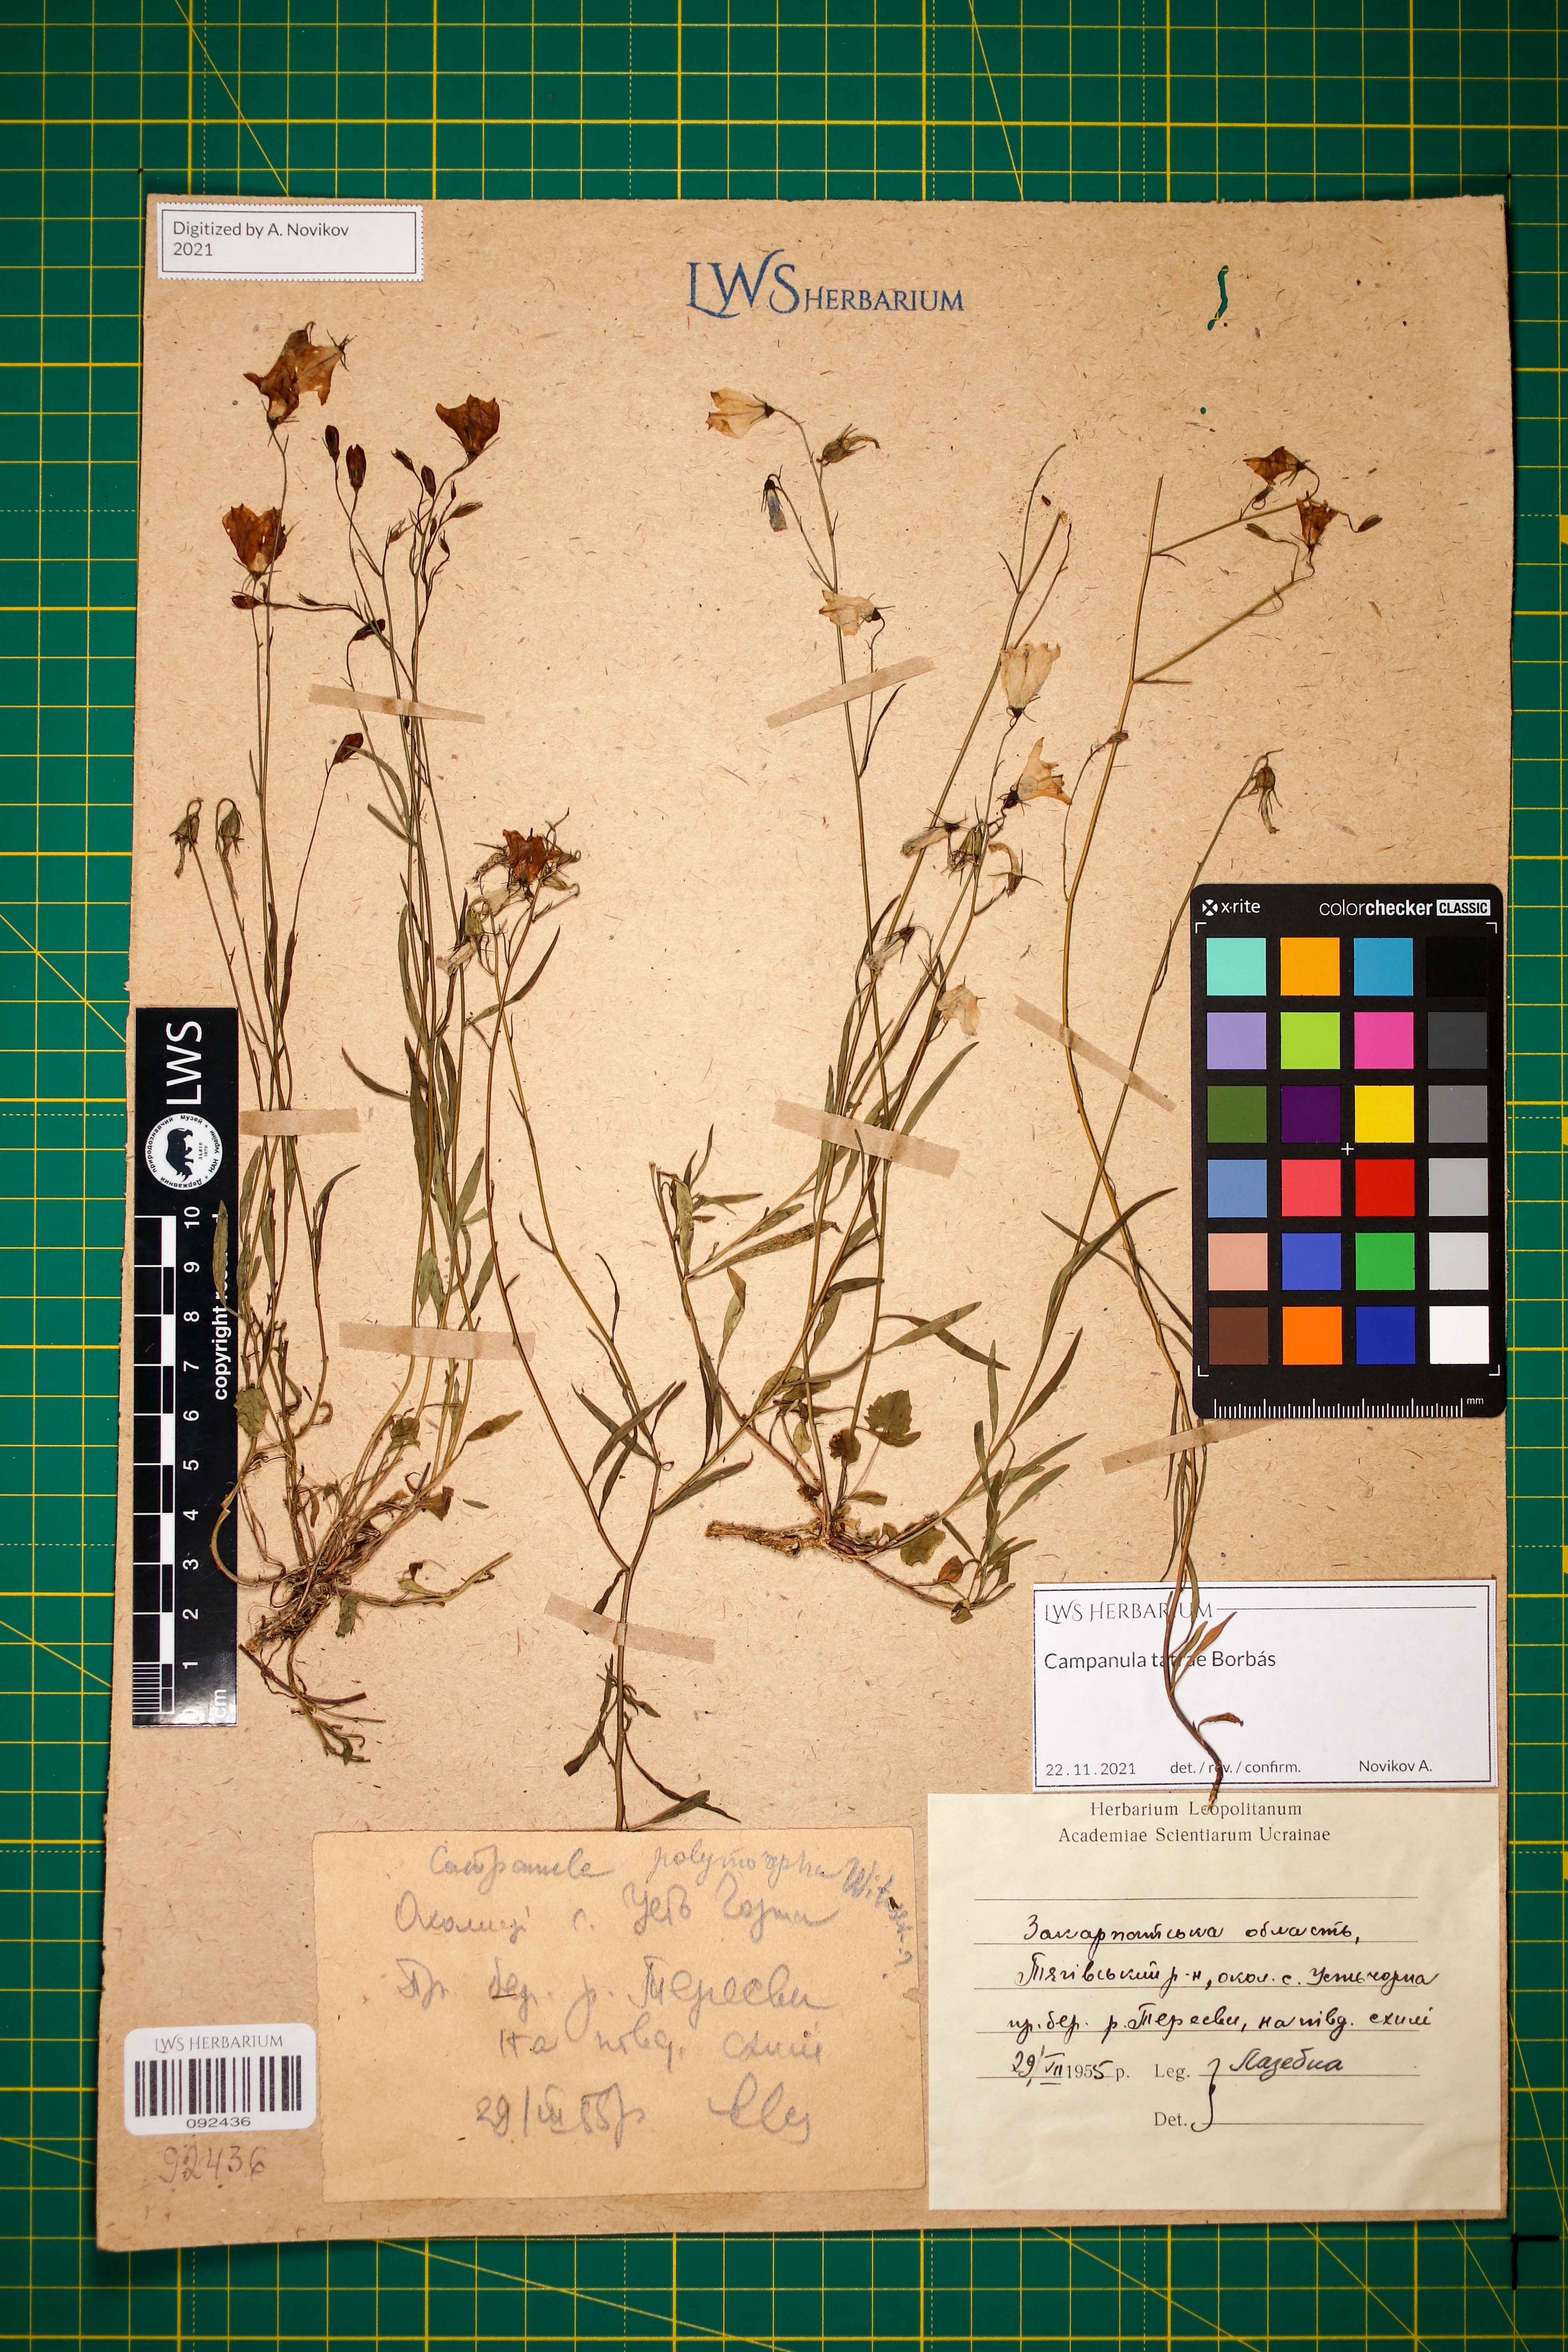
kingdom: Plantae
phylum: Tracheophyta
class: Magnoliopsida
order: Asterales
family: Campanulaceae
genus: Campanula
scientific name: Campanula tatrae
